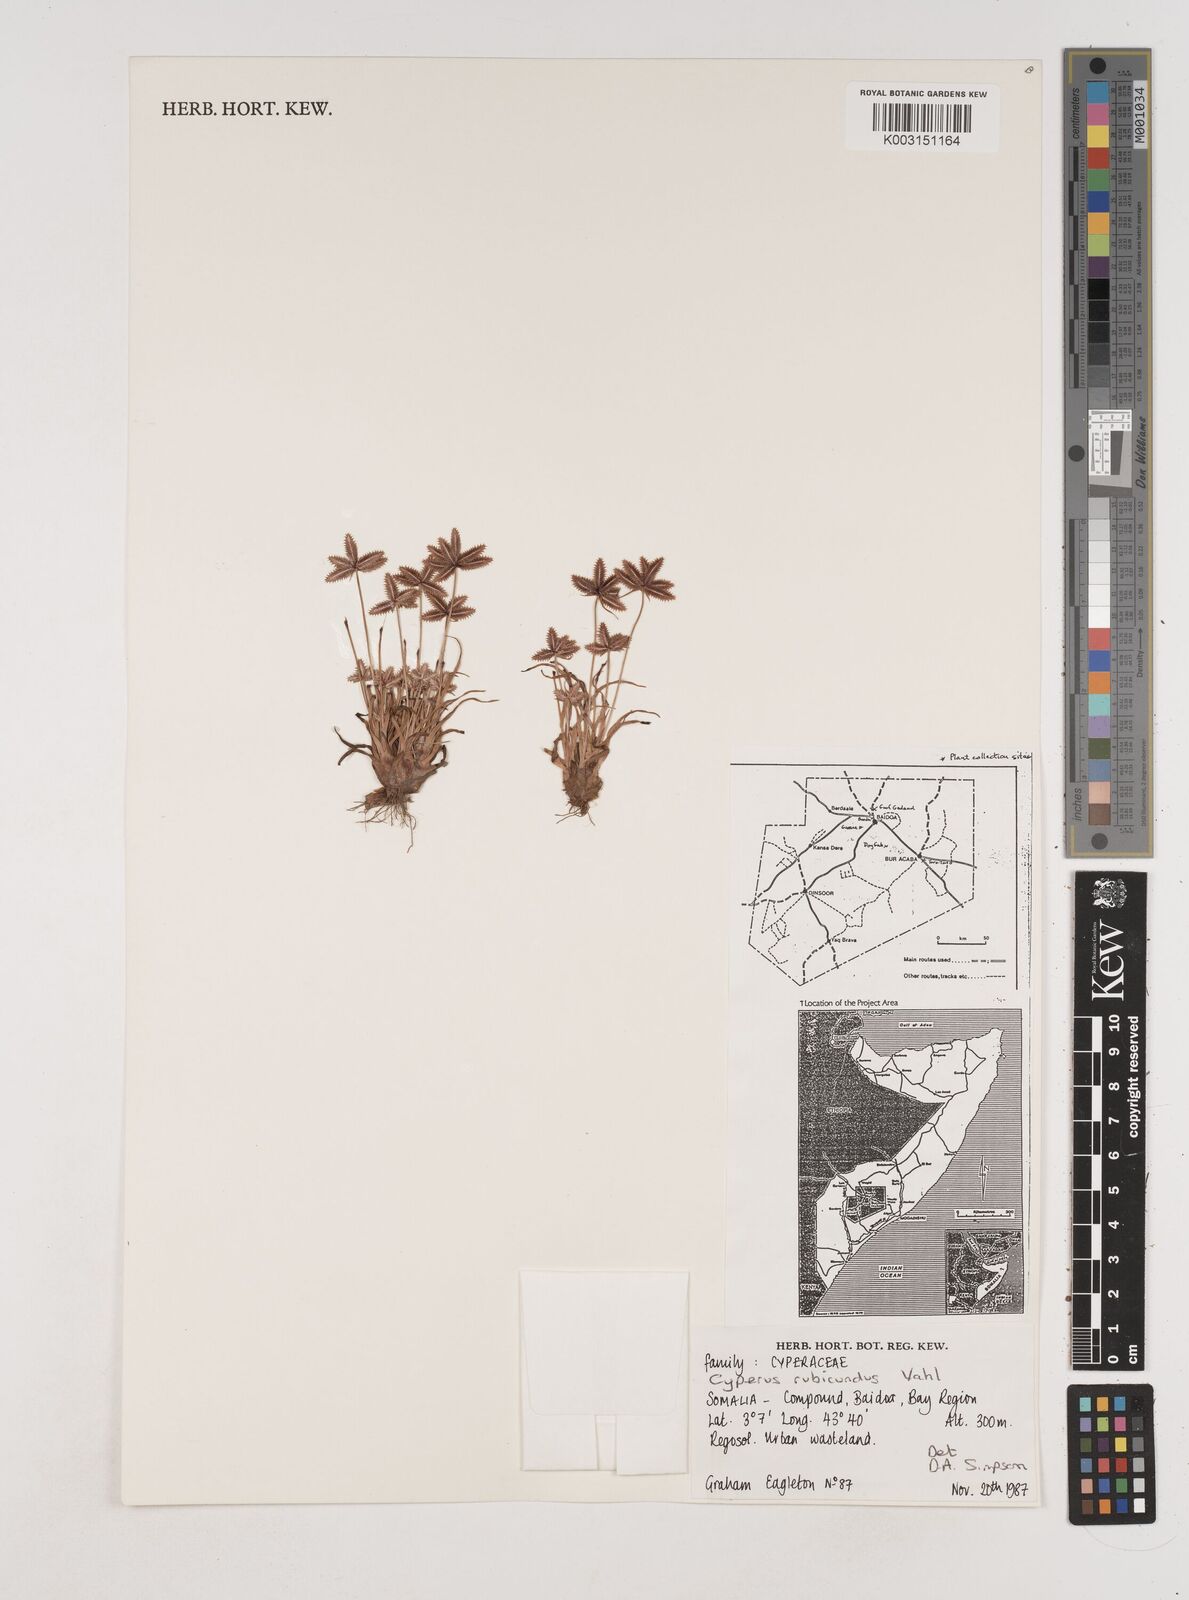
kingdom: Plantae
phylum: Tracheophyta
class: Liliopsida
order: Poales
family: Cyperaceae
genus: Cyperus
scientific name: Cyperus rubicundus
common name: Coco-grass
